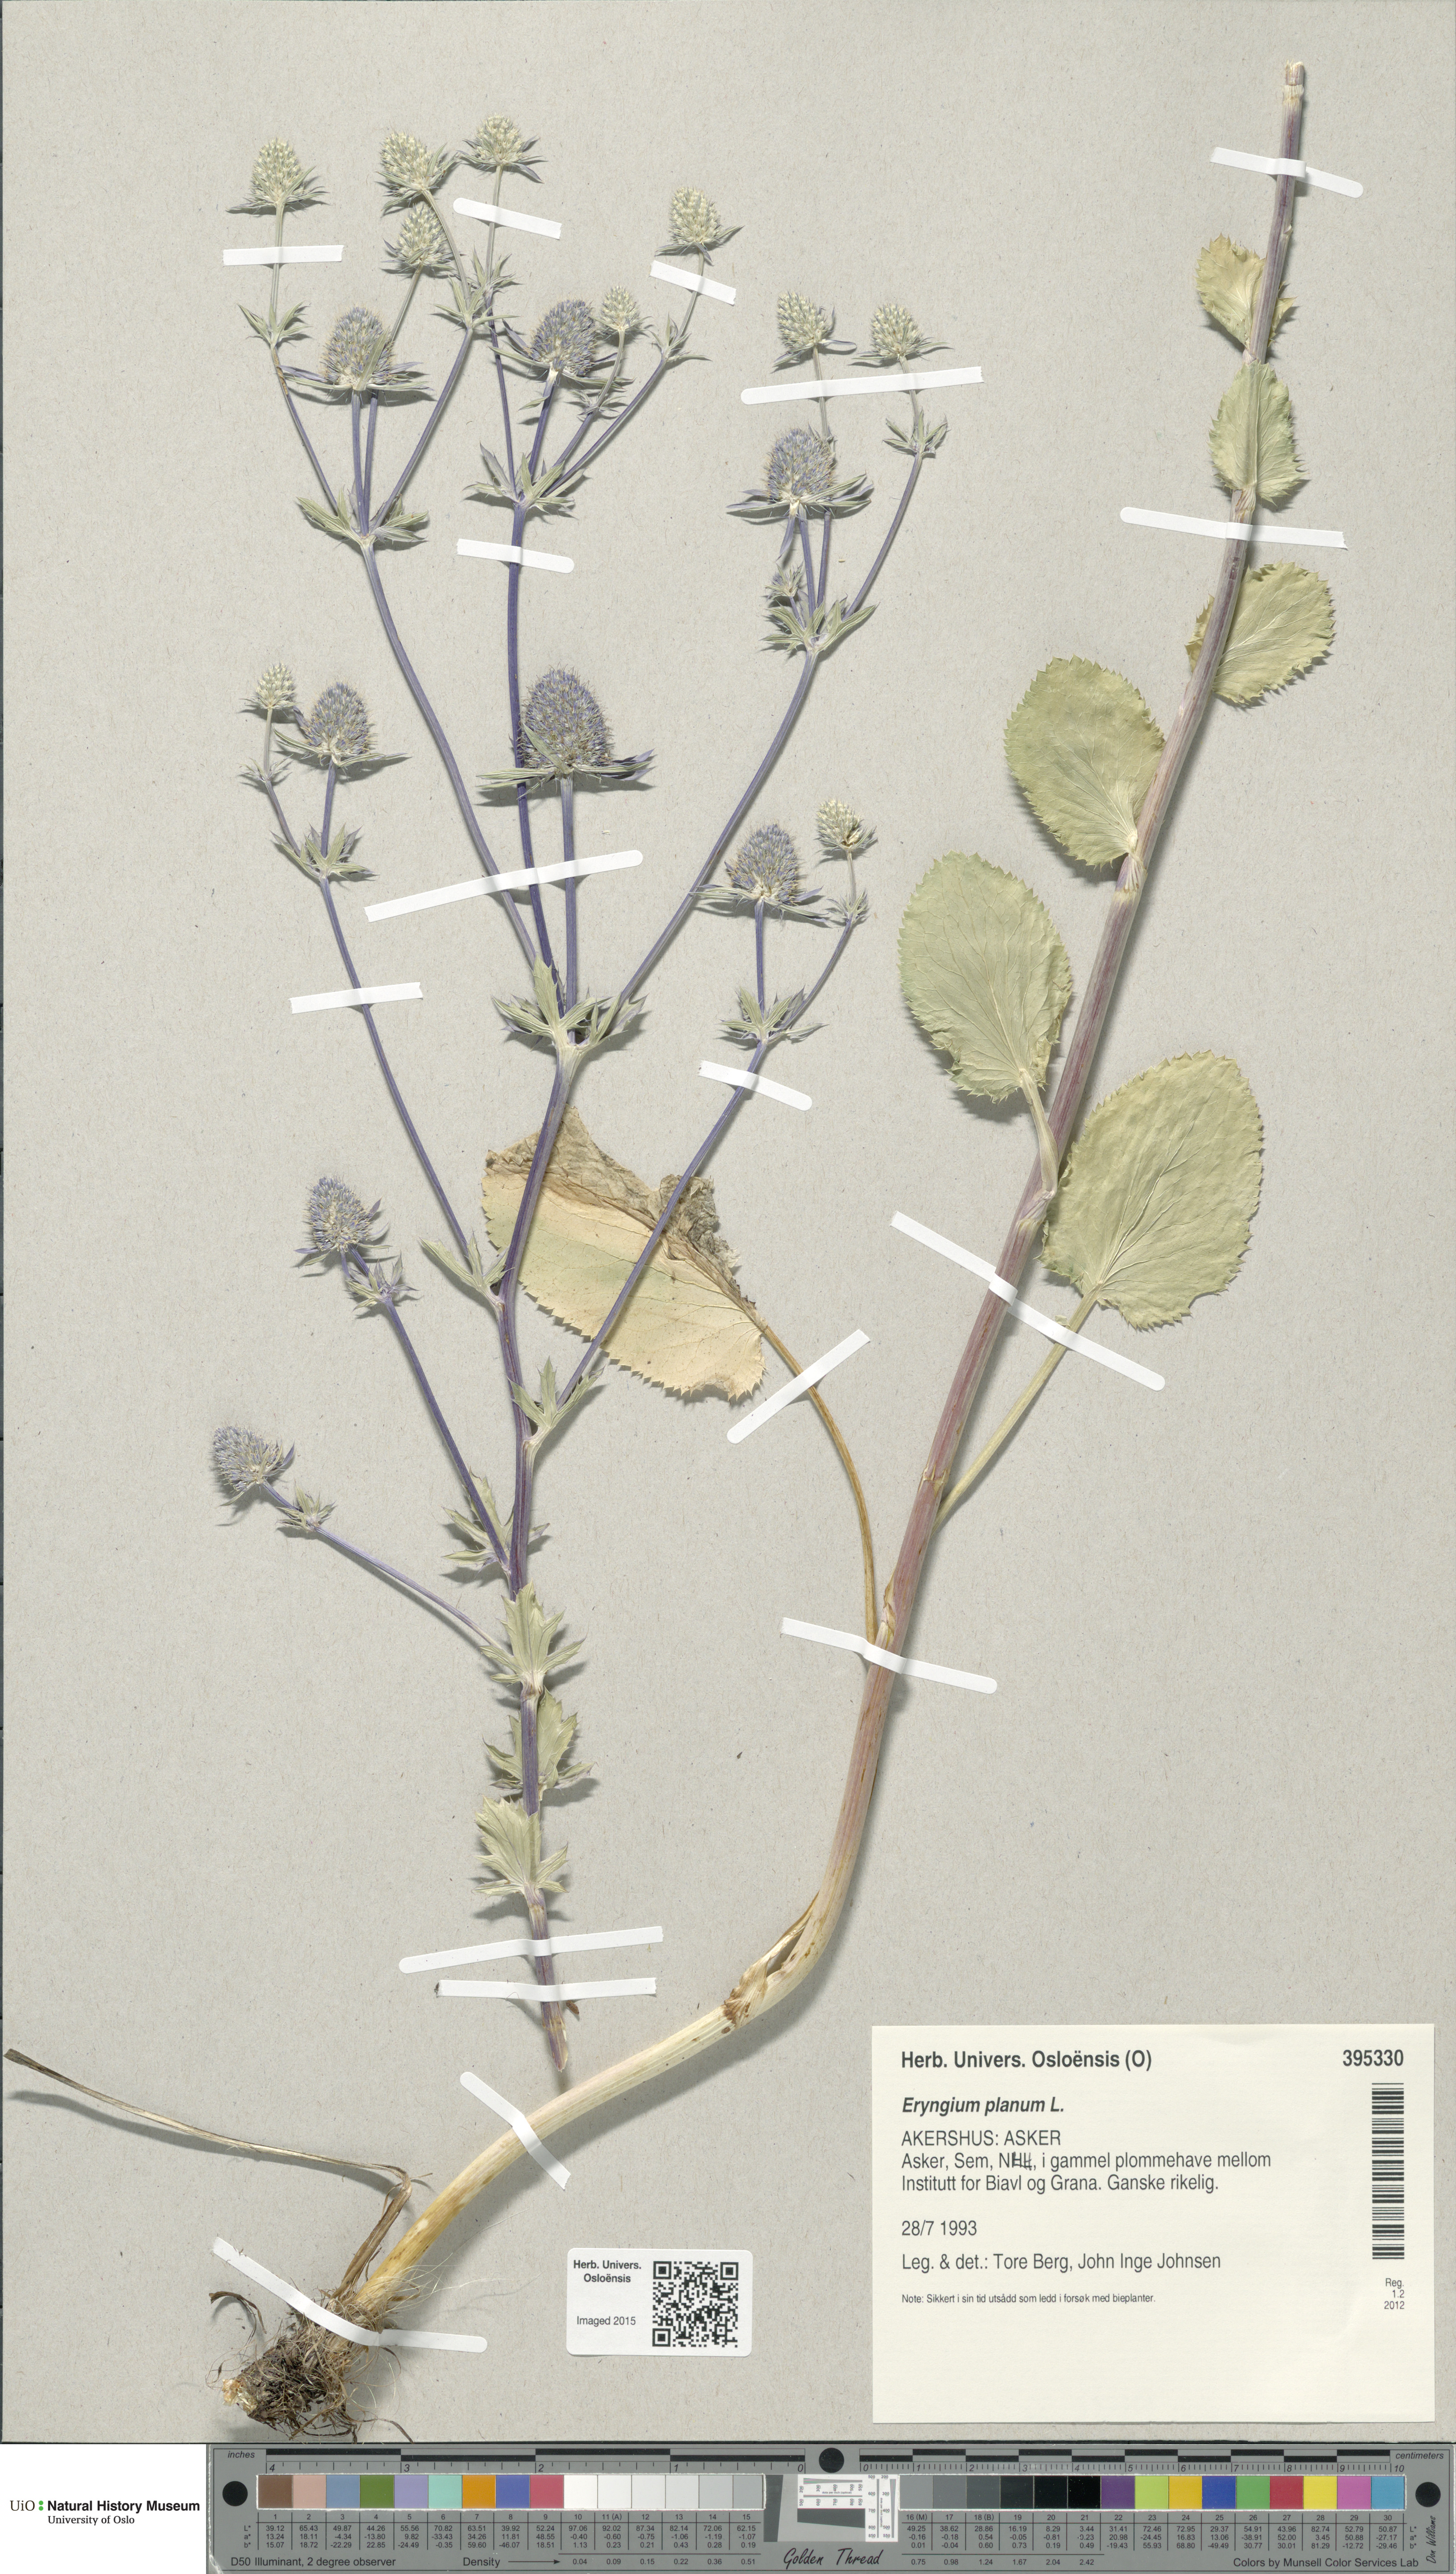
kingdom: Plantae
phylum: Tracheophyta
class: Magnoliopsida
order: Apiales
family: Apiaceae
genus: Eryngium
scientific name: Eryngium planum
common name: Blue eryngo
